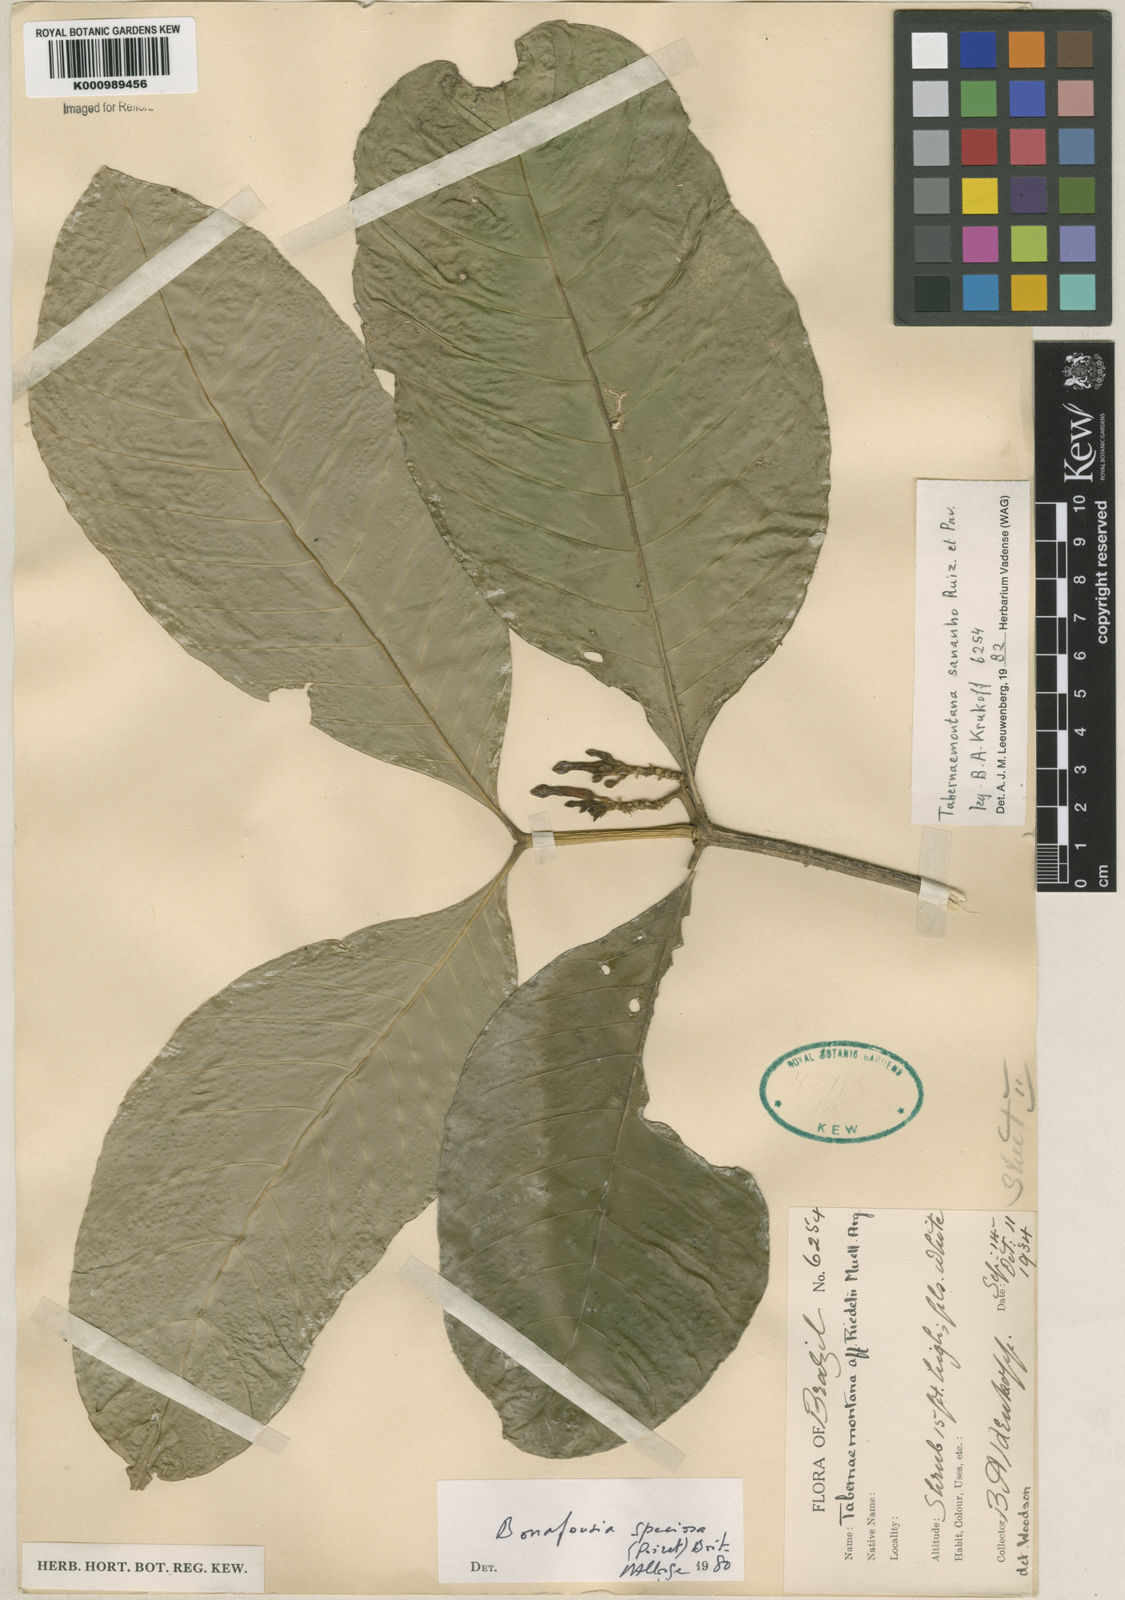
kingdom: Plantae
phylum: Tracheophyta
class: Magnoliopsida
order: Gentianales
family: Apocynaceae
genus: Tabernaemontana
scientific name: Tabernaemontana sananho
